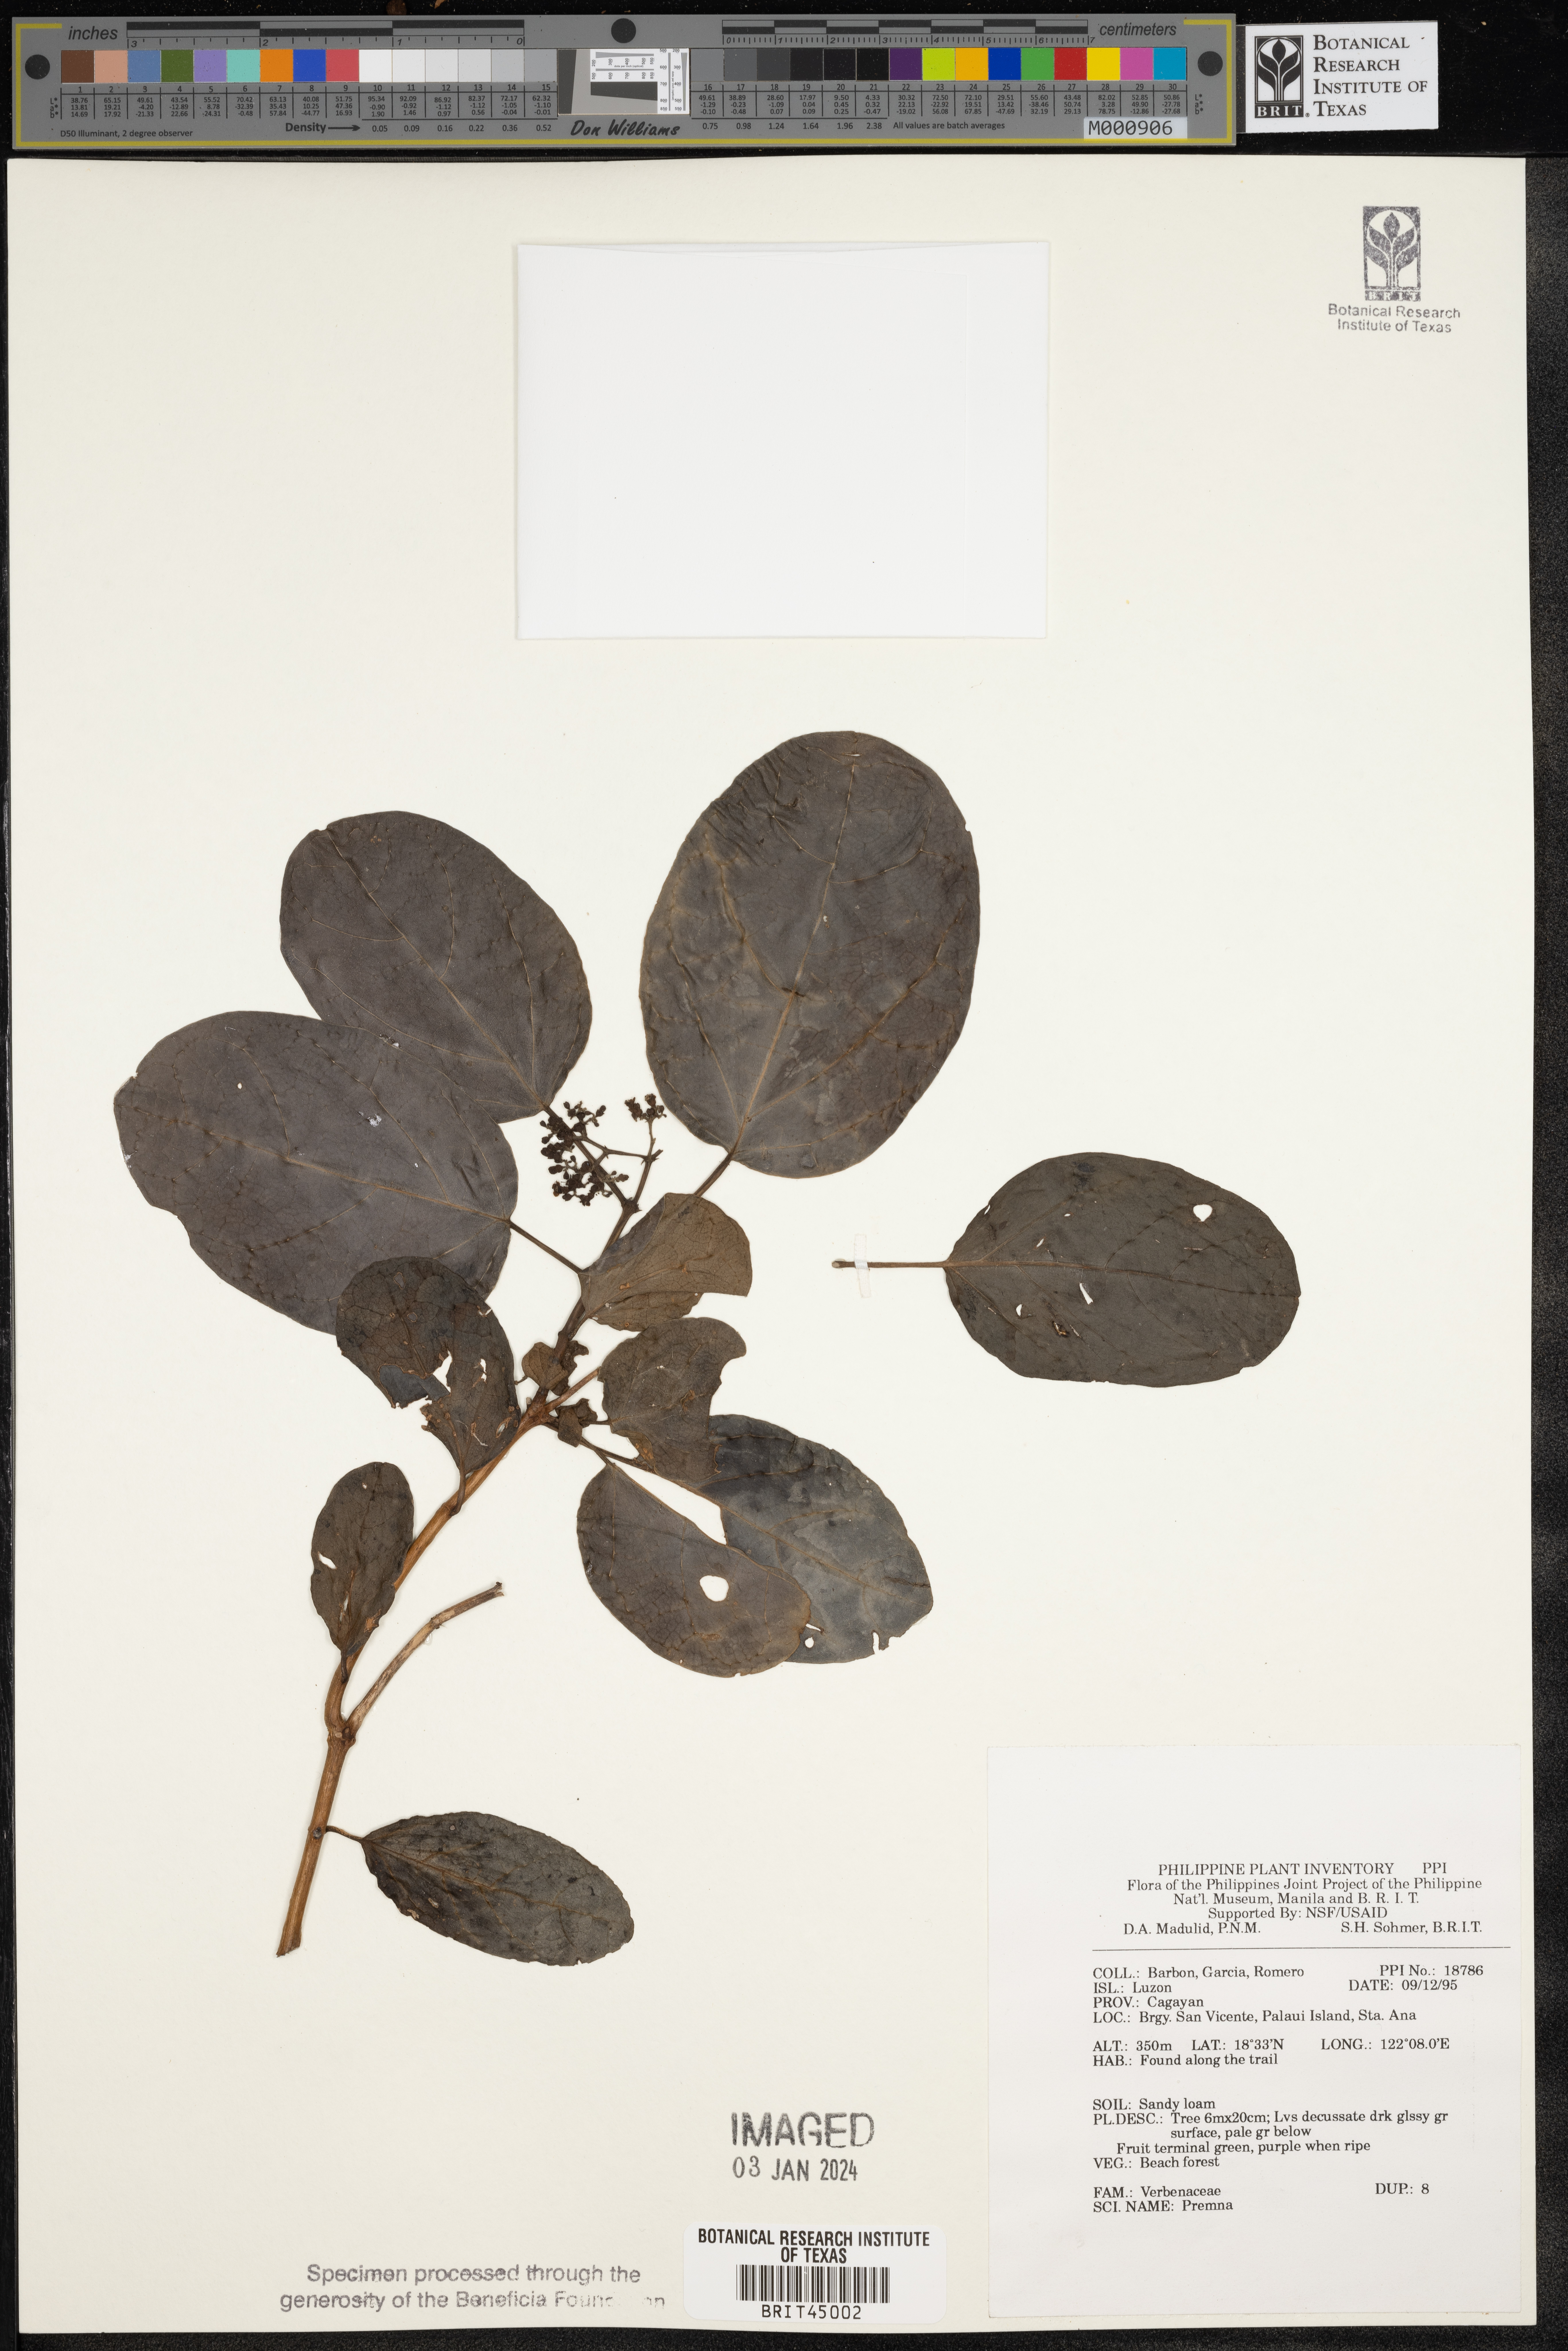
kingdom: Plantae
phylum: Tracheophyta
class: Magnoliopsida
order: Lamiales
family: Lamiaceae
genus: Premna
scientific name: Premna
